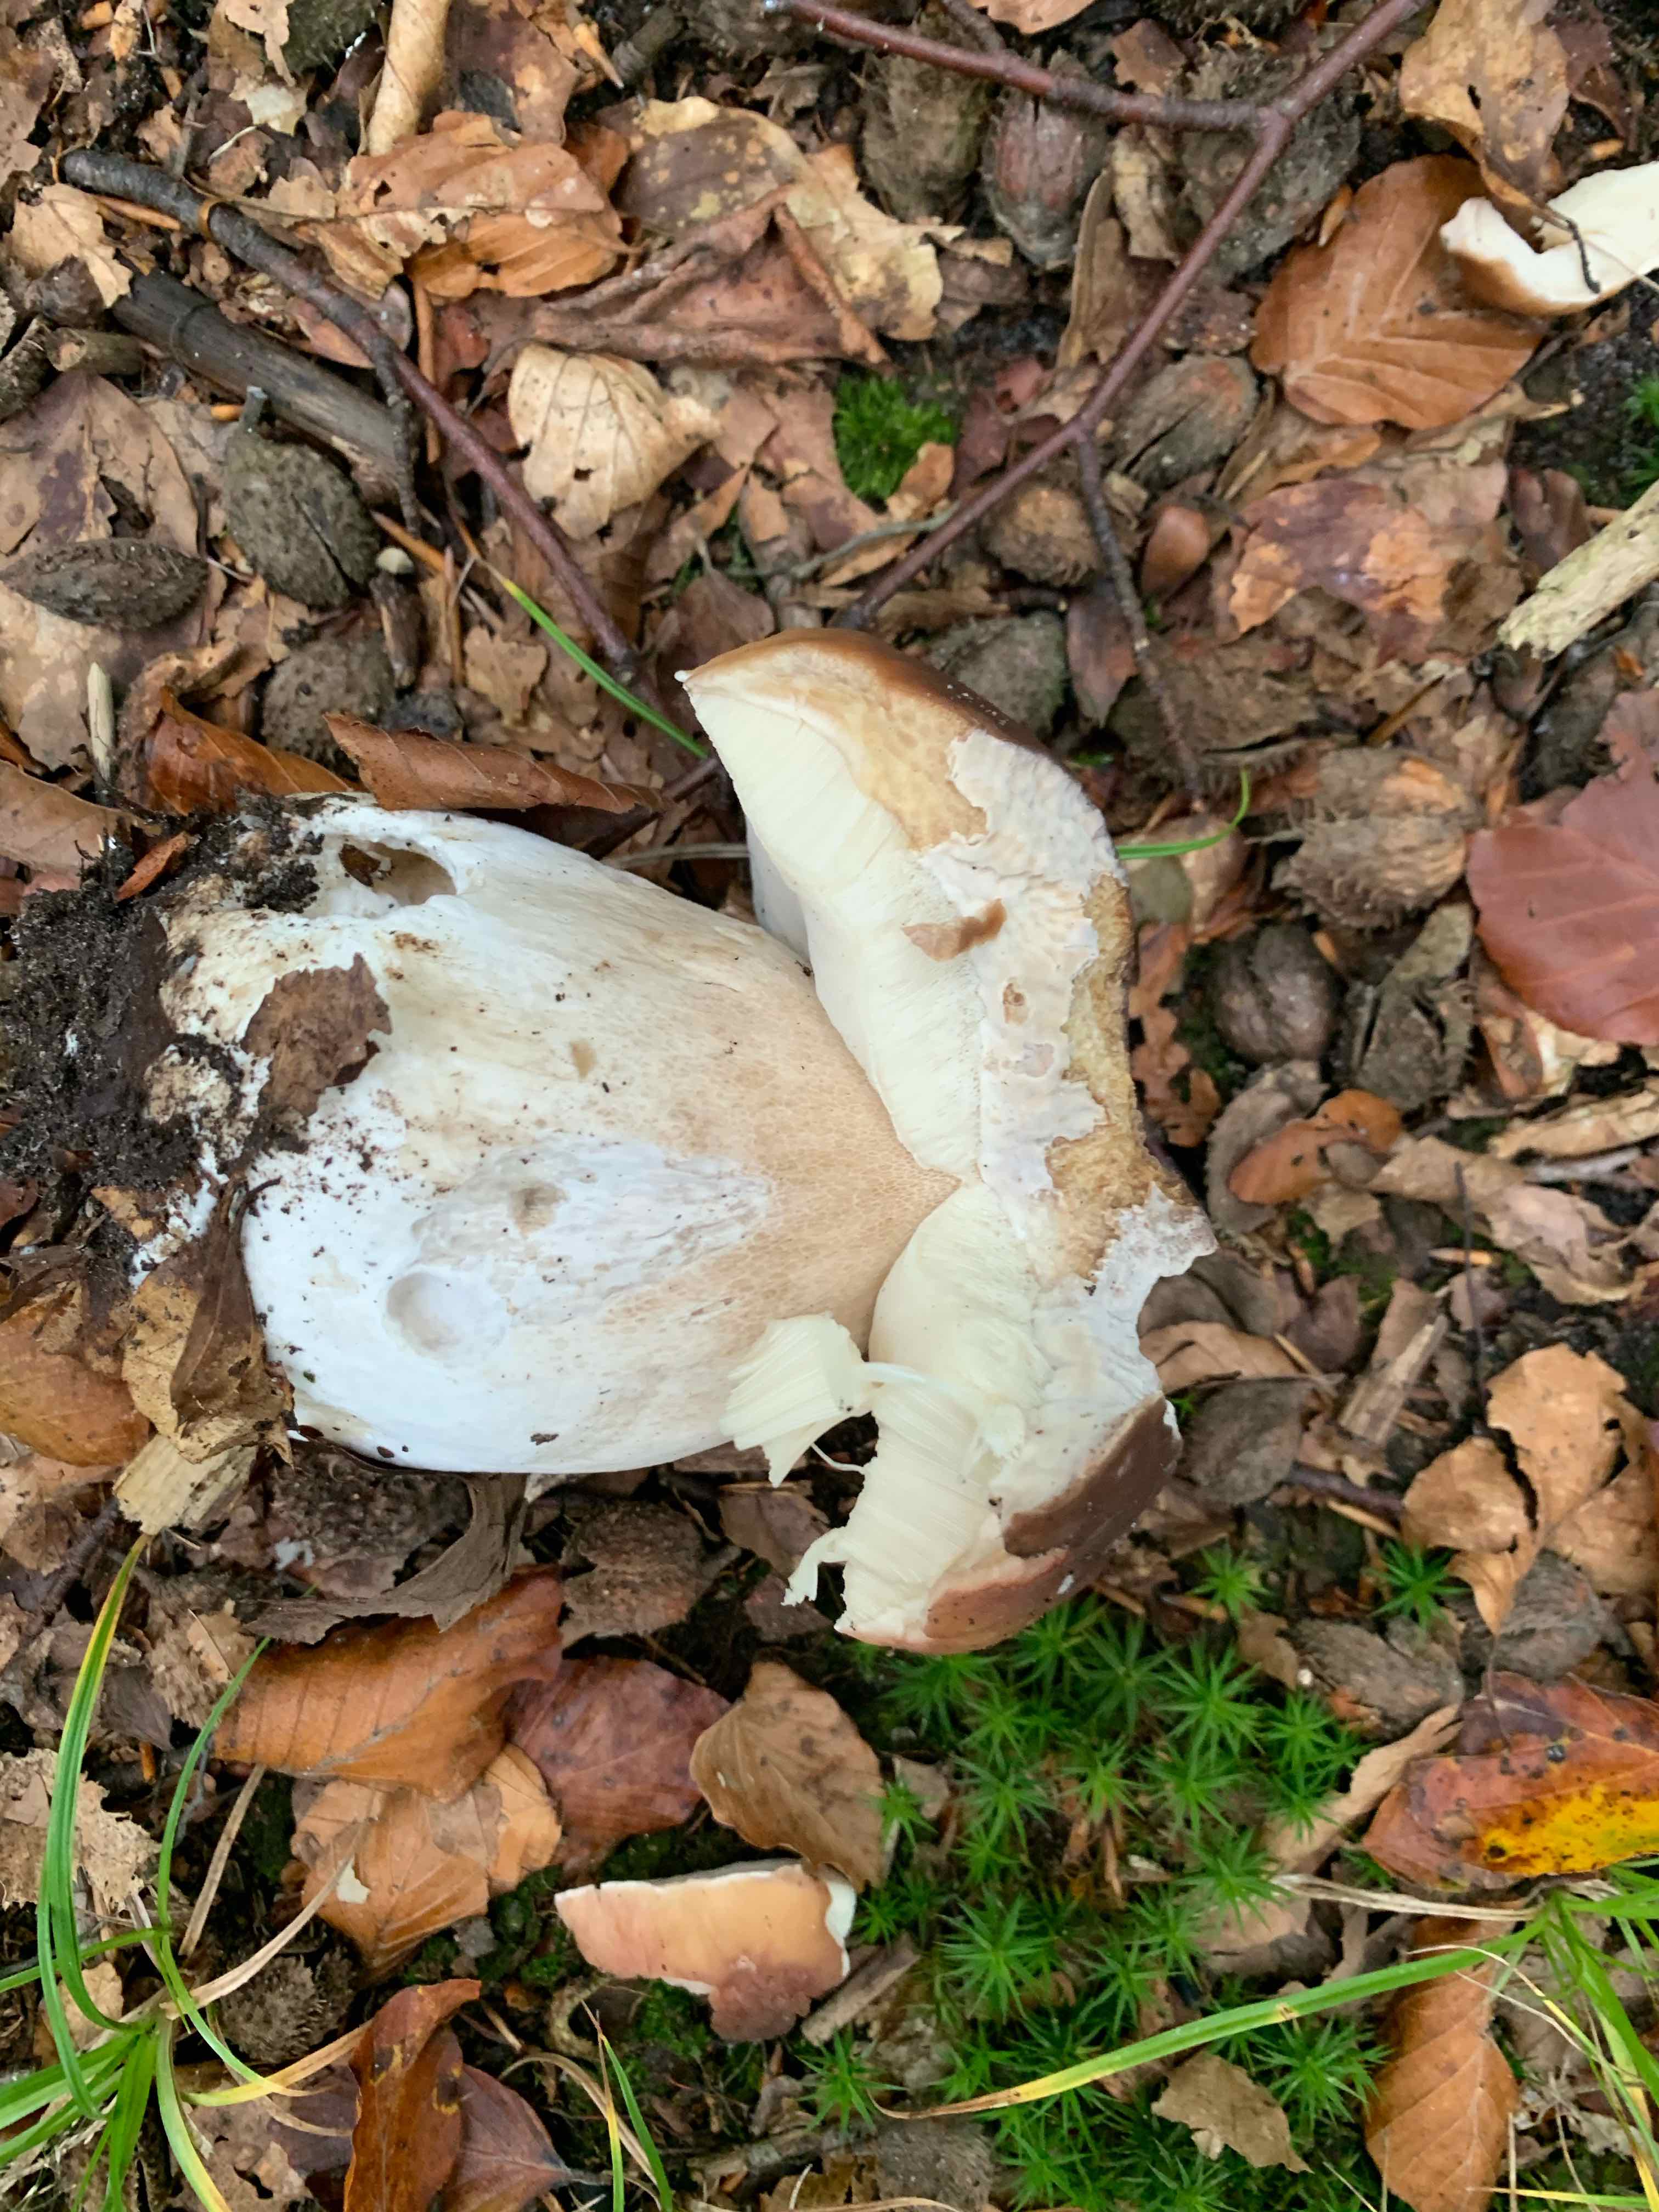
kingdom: Fungi
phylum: Basidiomycota
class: Agaricomycetes
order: Boletales
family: Boletaceae
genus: Boletus
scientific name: Boletus edulis
